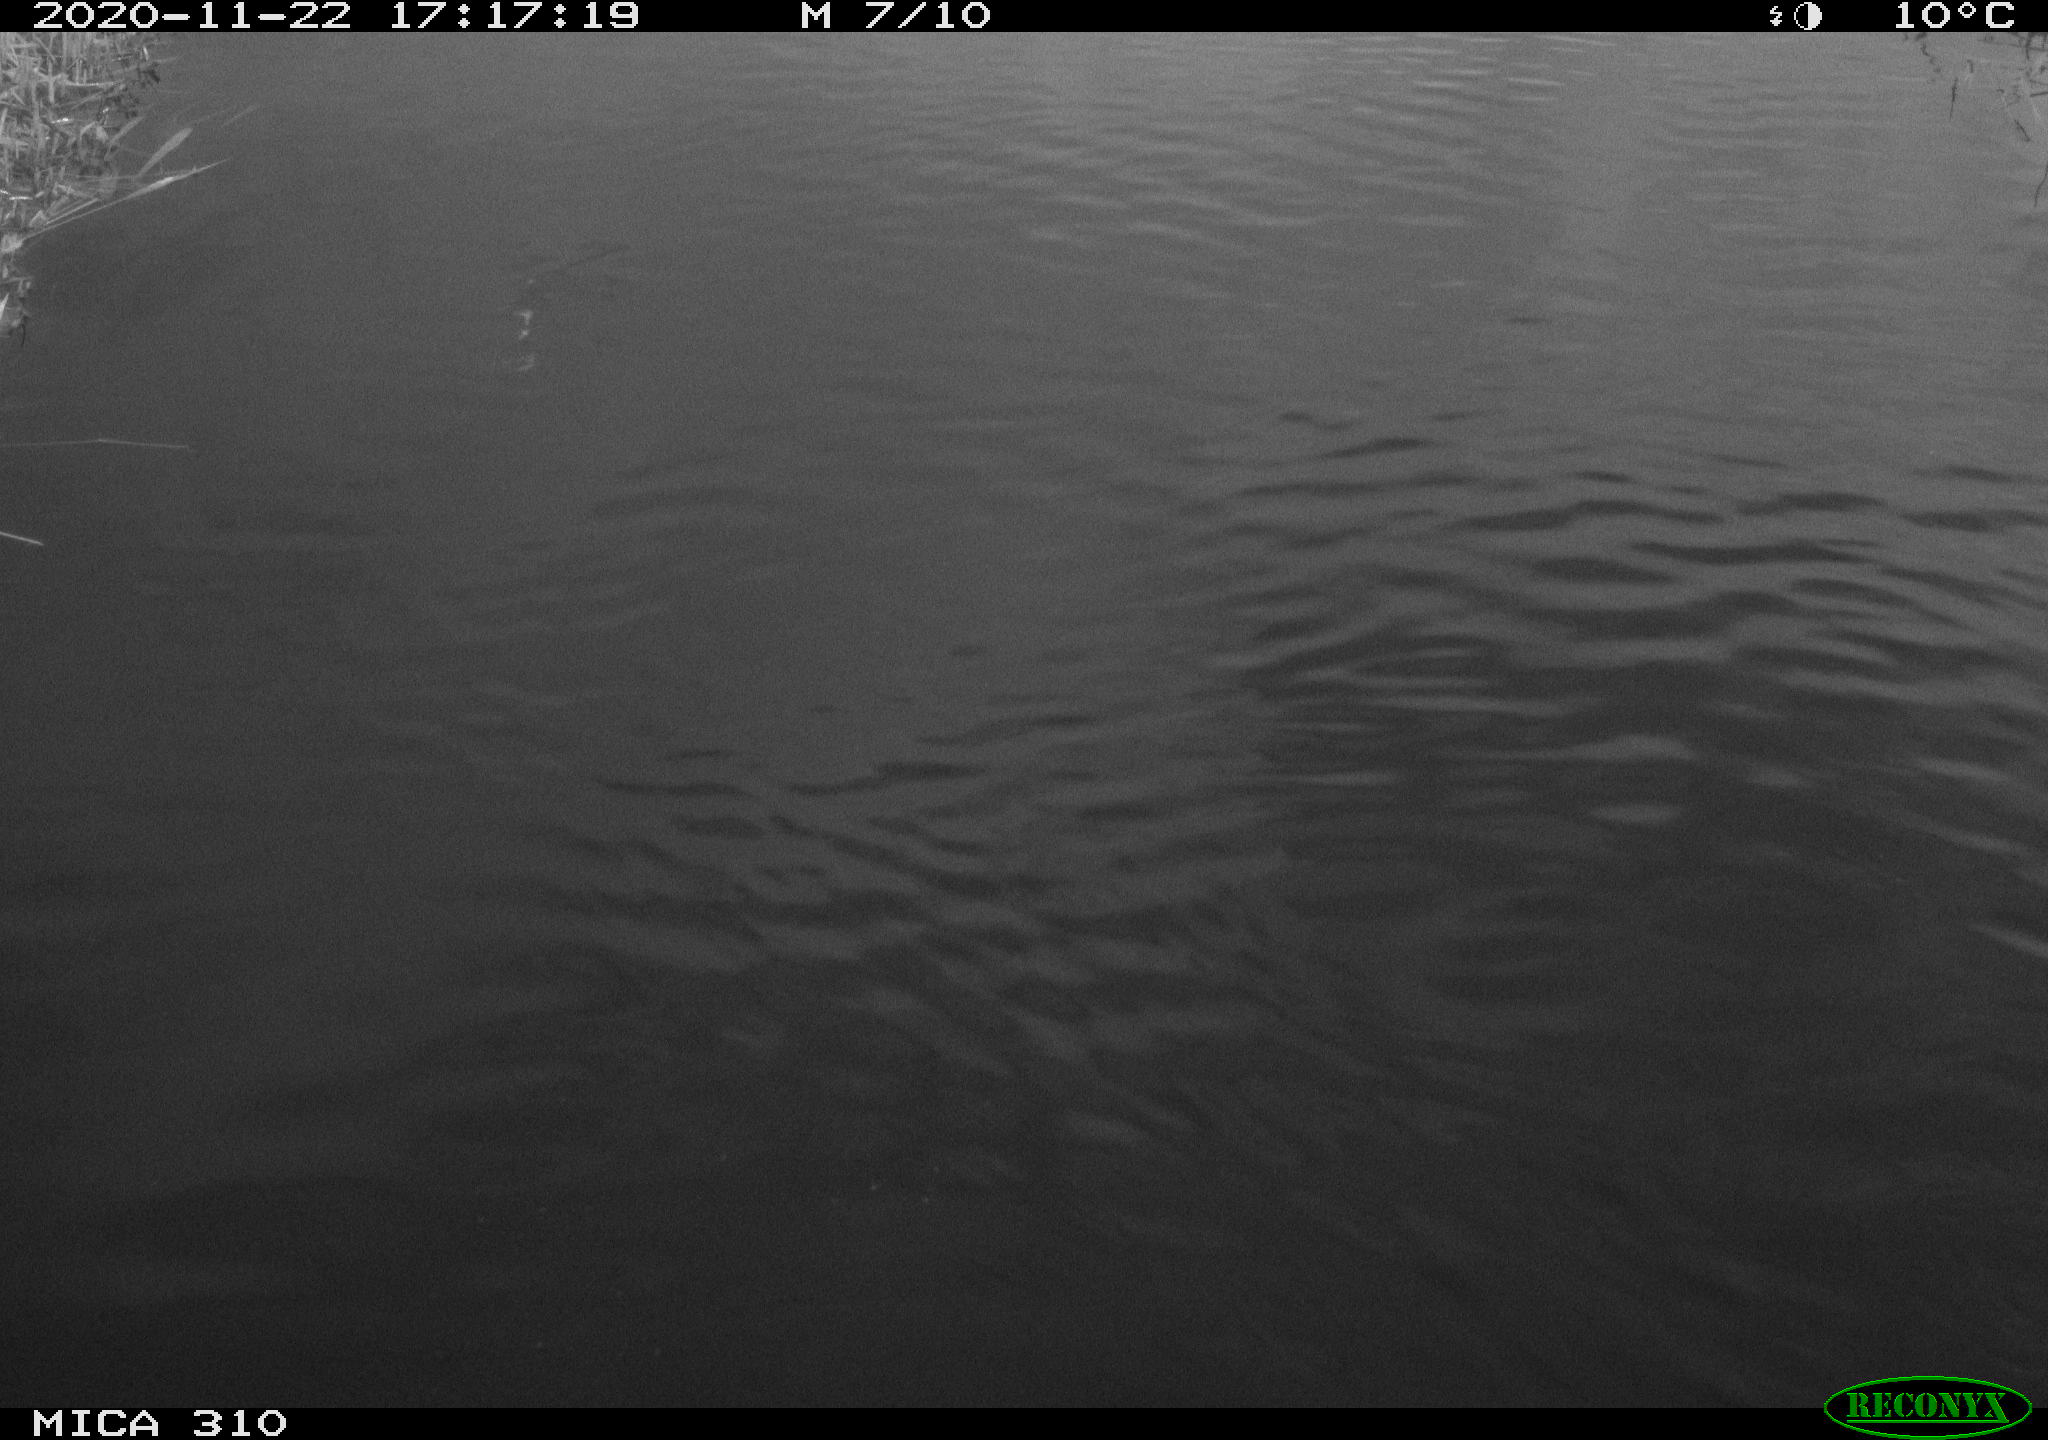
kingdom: Animalia
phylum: Chordata
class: Aves
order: Gruiformes
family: Rallidae
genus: Fulica
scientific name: Fulica atra
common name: Eurasian coot
